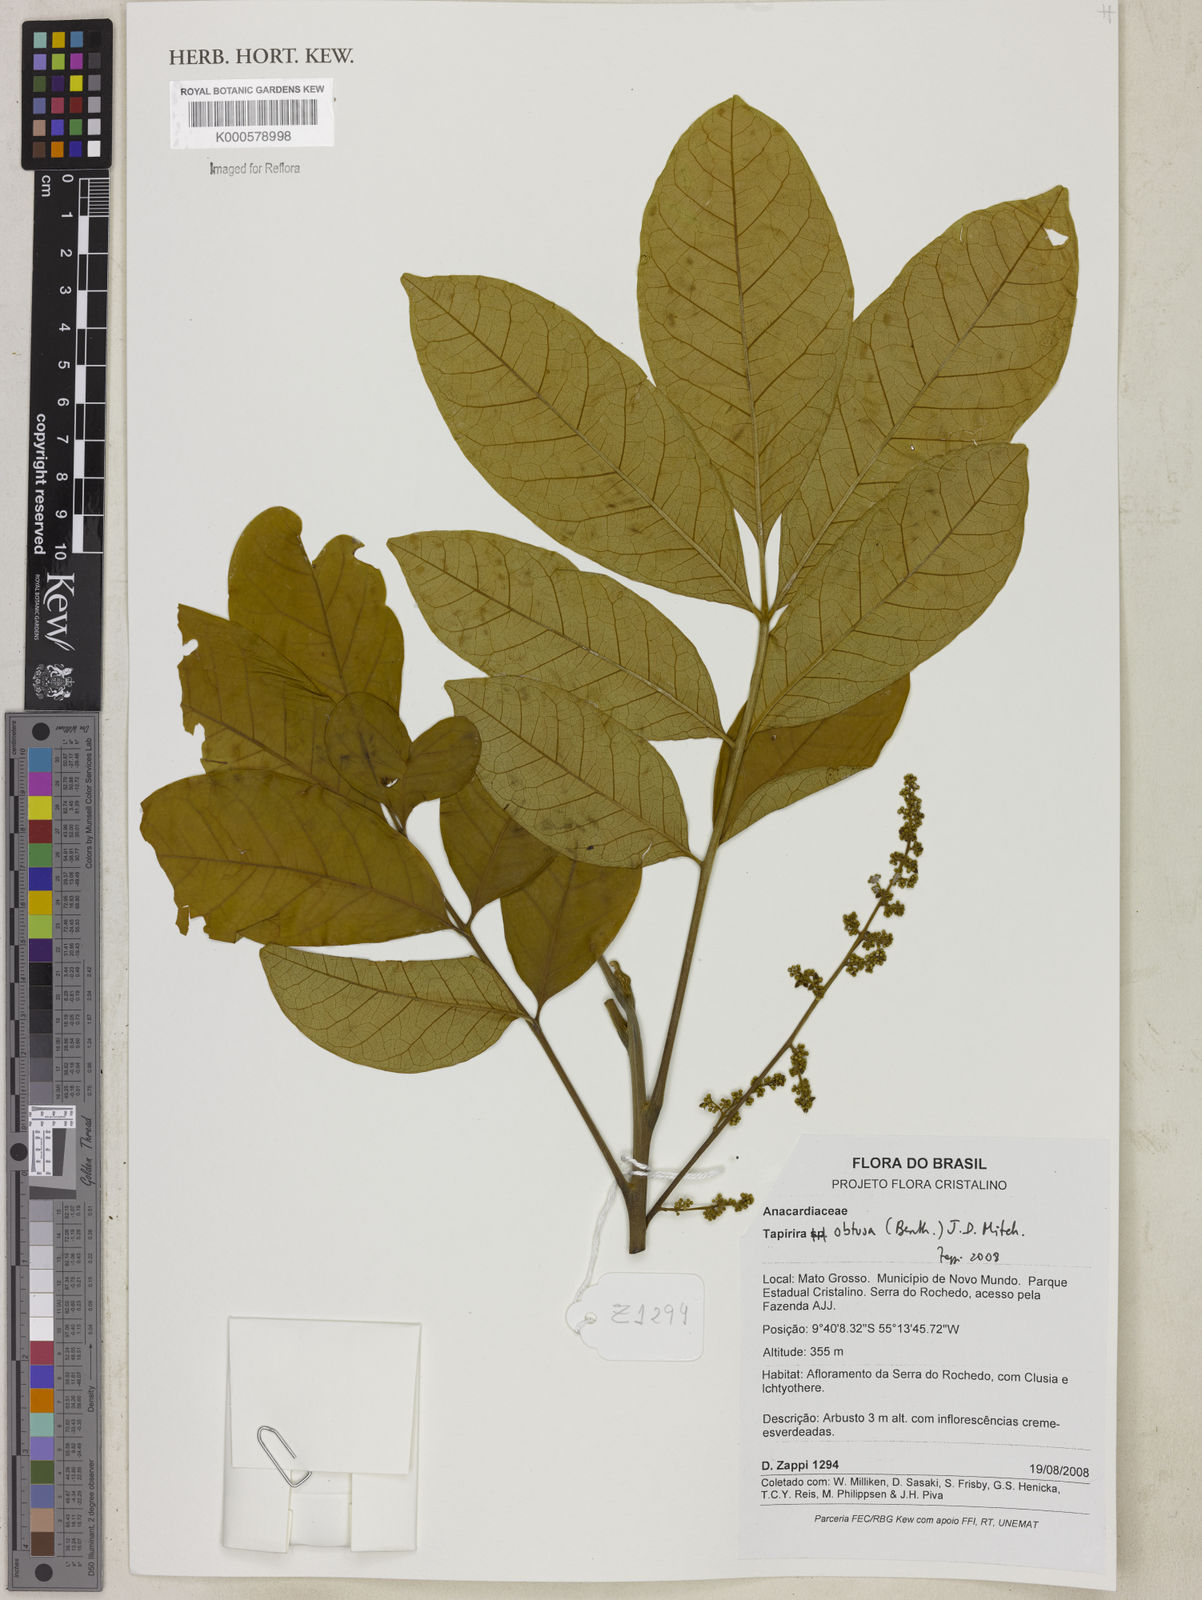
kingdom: Plantae
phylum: Tracheophyta
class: Magnoliopsida
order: Sapindales
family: Anacardiaceae
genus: Tapirira
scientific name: Tapirira obtusa
